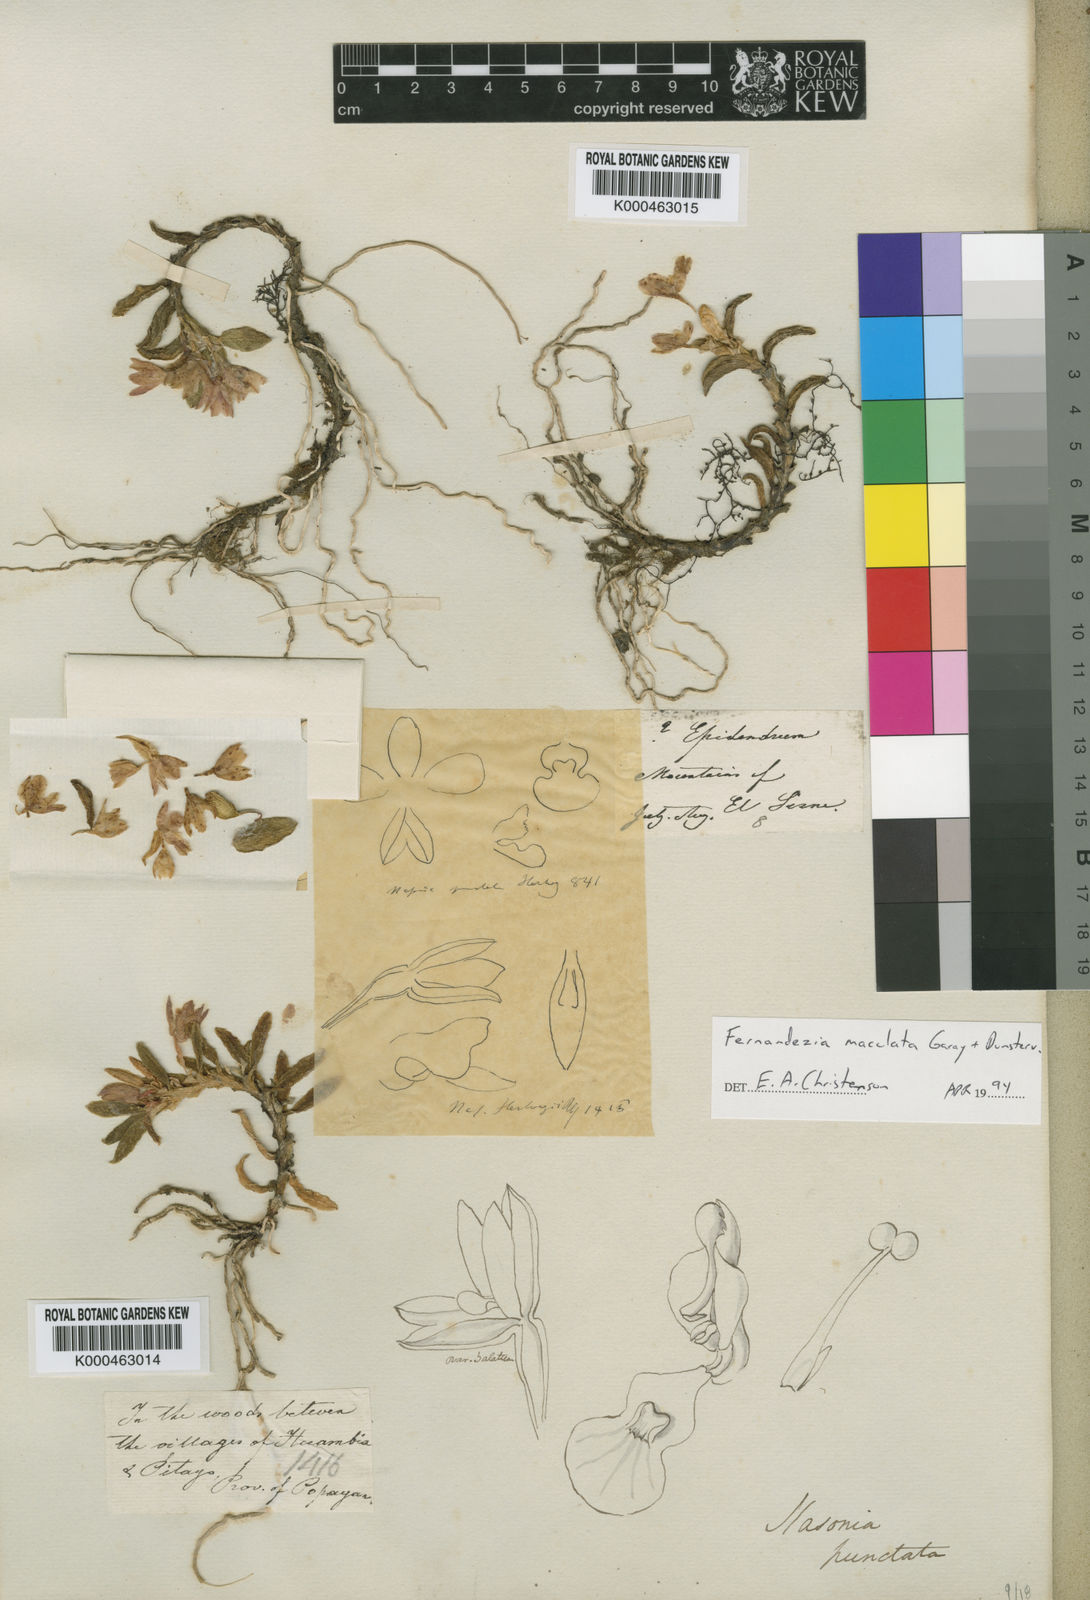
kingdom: Plantae
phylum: Tracheophyta
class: Liliopsida
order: Asparagales
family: Orchidaceae
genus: Fernandezia
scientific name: Fernandezia maculata
